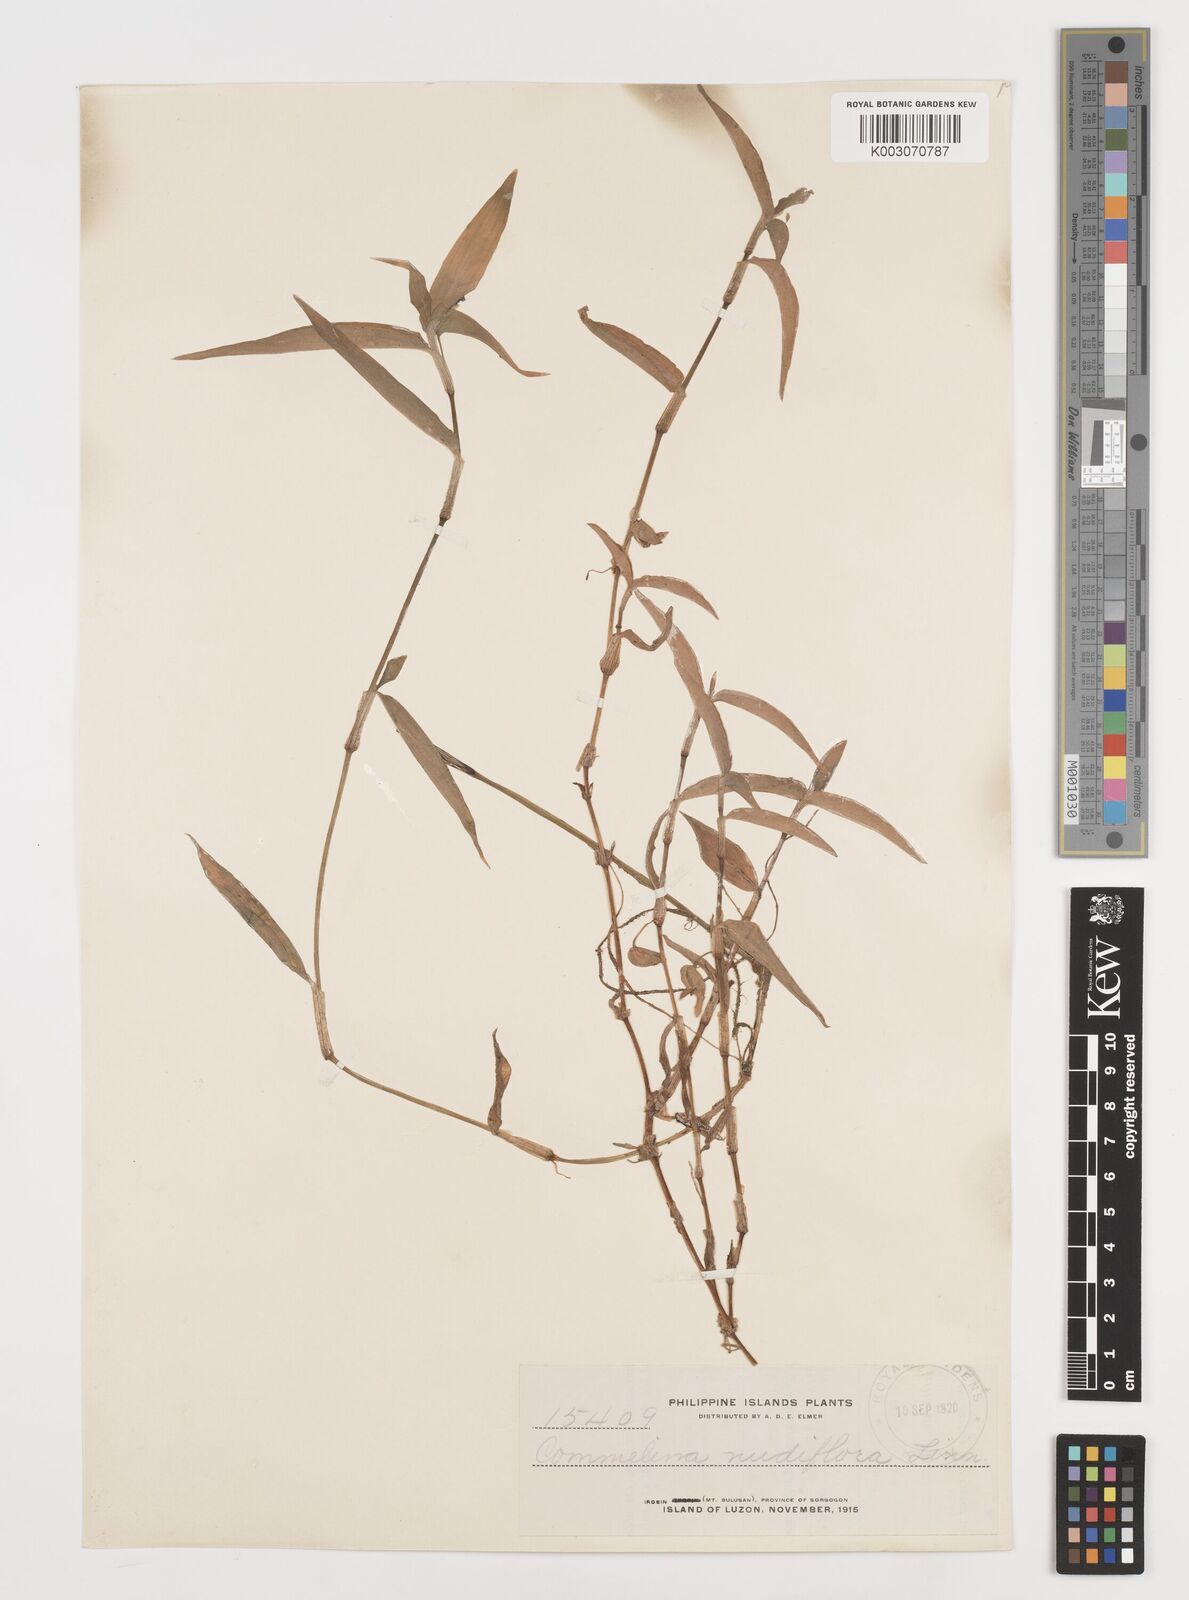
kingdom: Plantae
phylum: Tracheophyta
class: Liliopsida
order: Commelinales
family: Commelinaceae
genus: Murdannia
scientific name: Murdannia nudiflora
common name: Nakedstem dewflower
